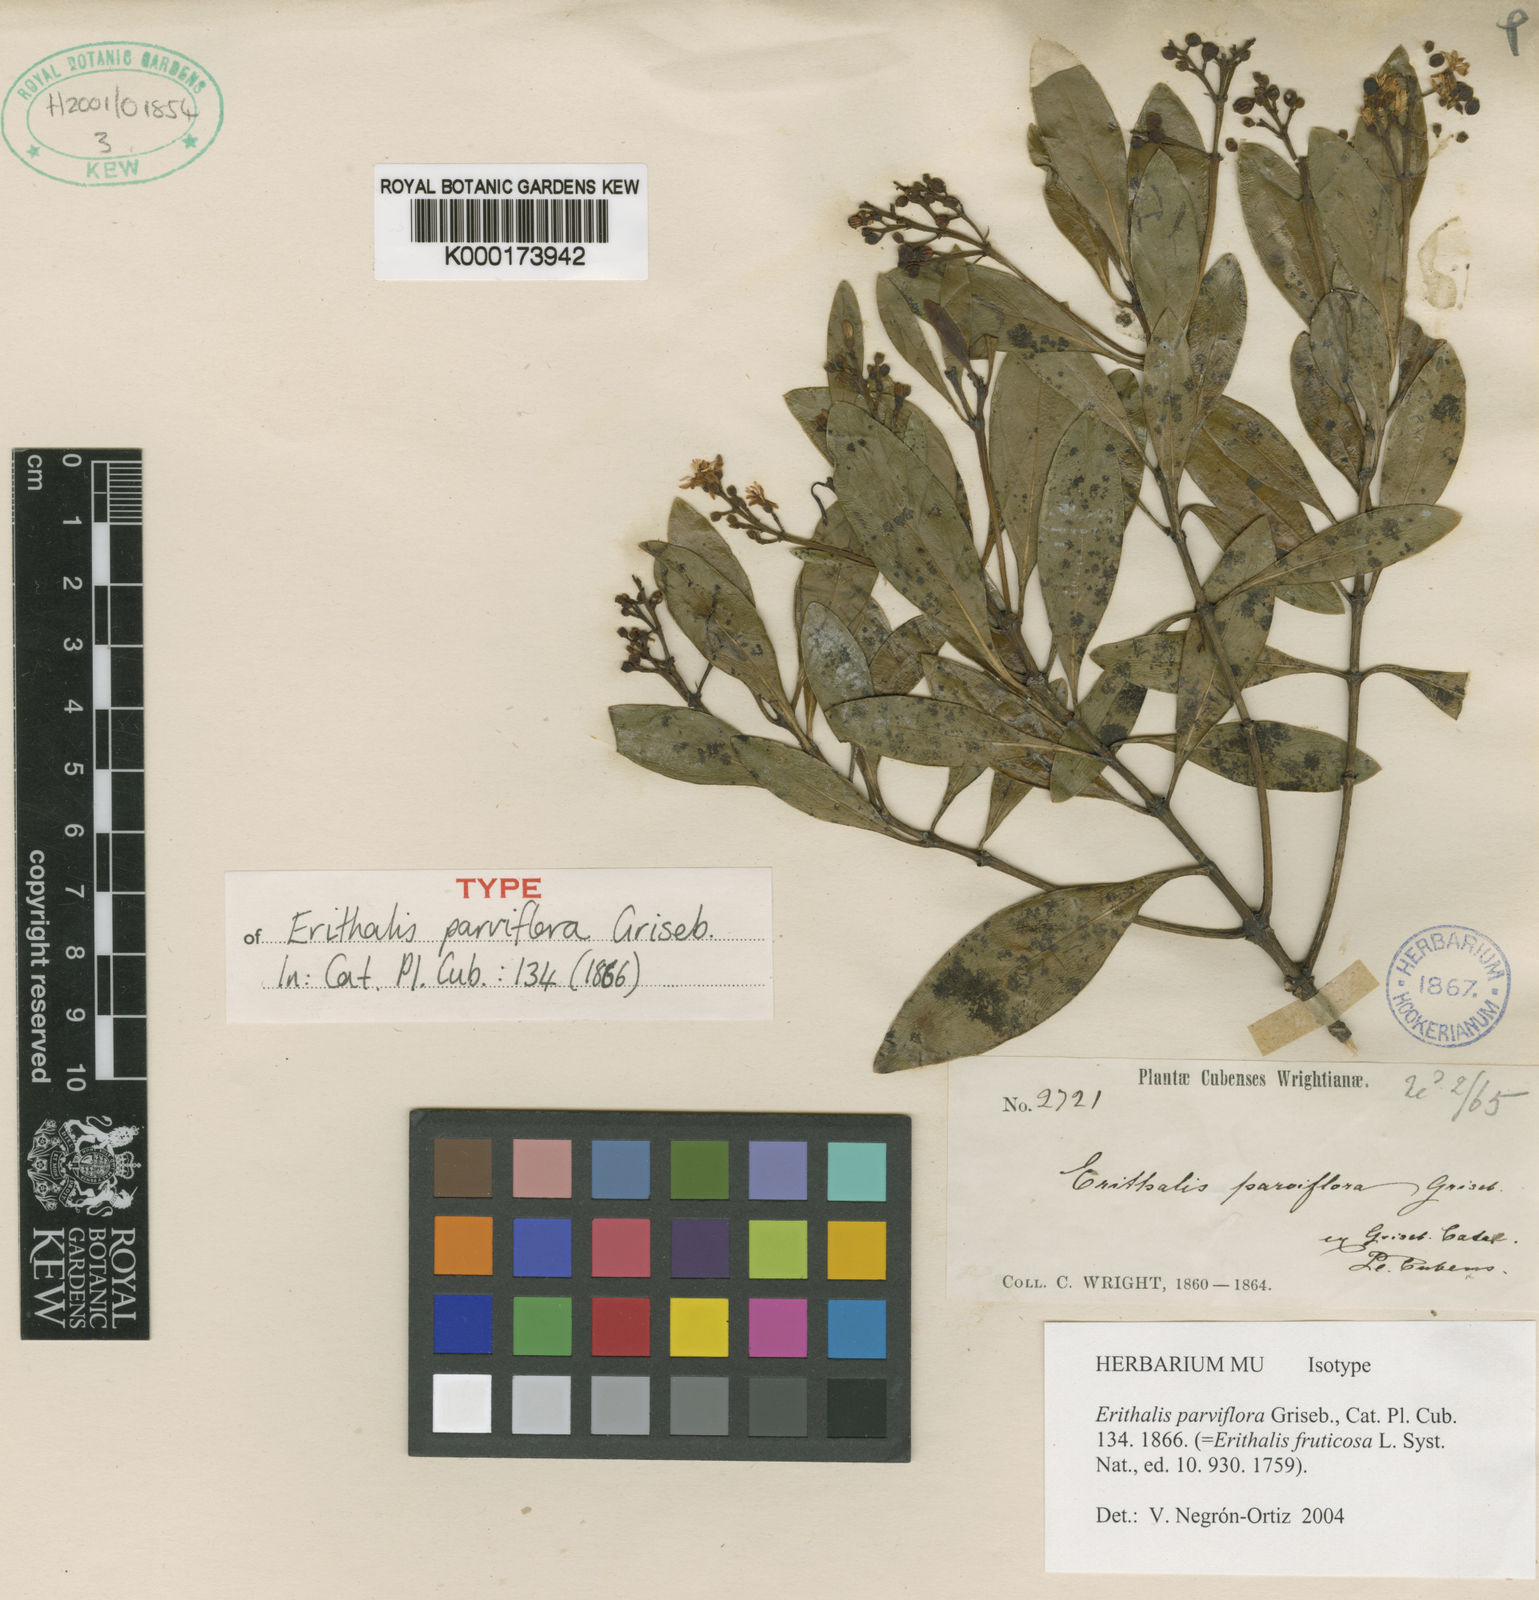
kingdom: Plantae
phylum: Tracheophyta
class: Magnoliopsida
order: Gentianales
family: Rubiaceae
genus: Erithalis
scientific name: Erithalis fruticosa
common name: Candlewood
